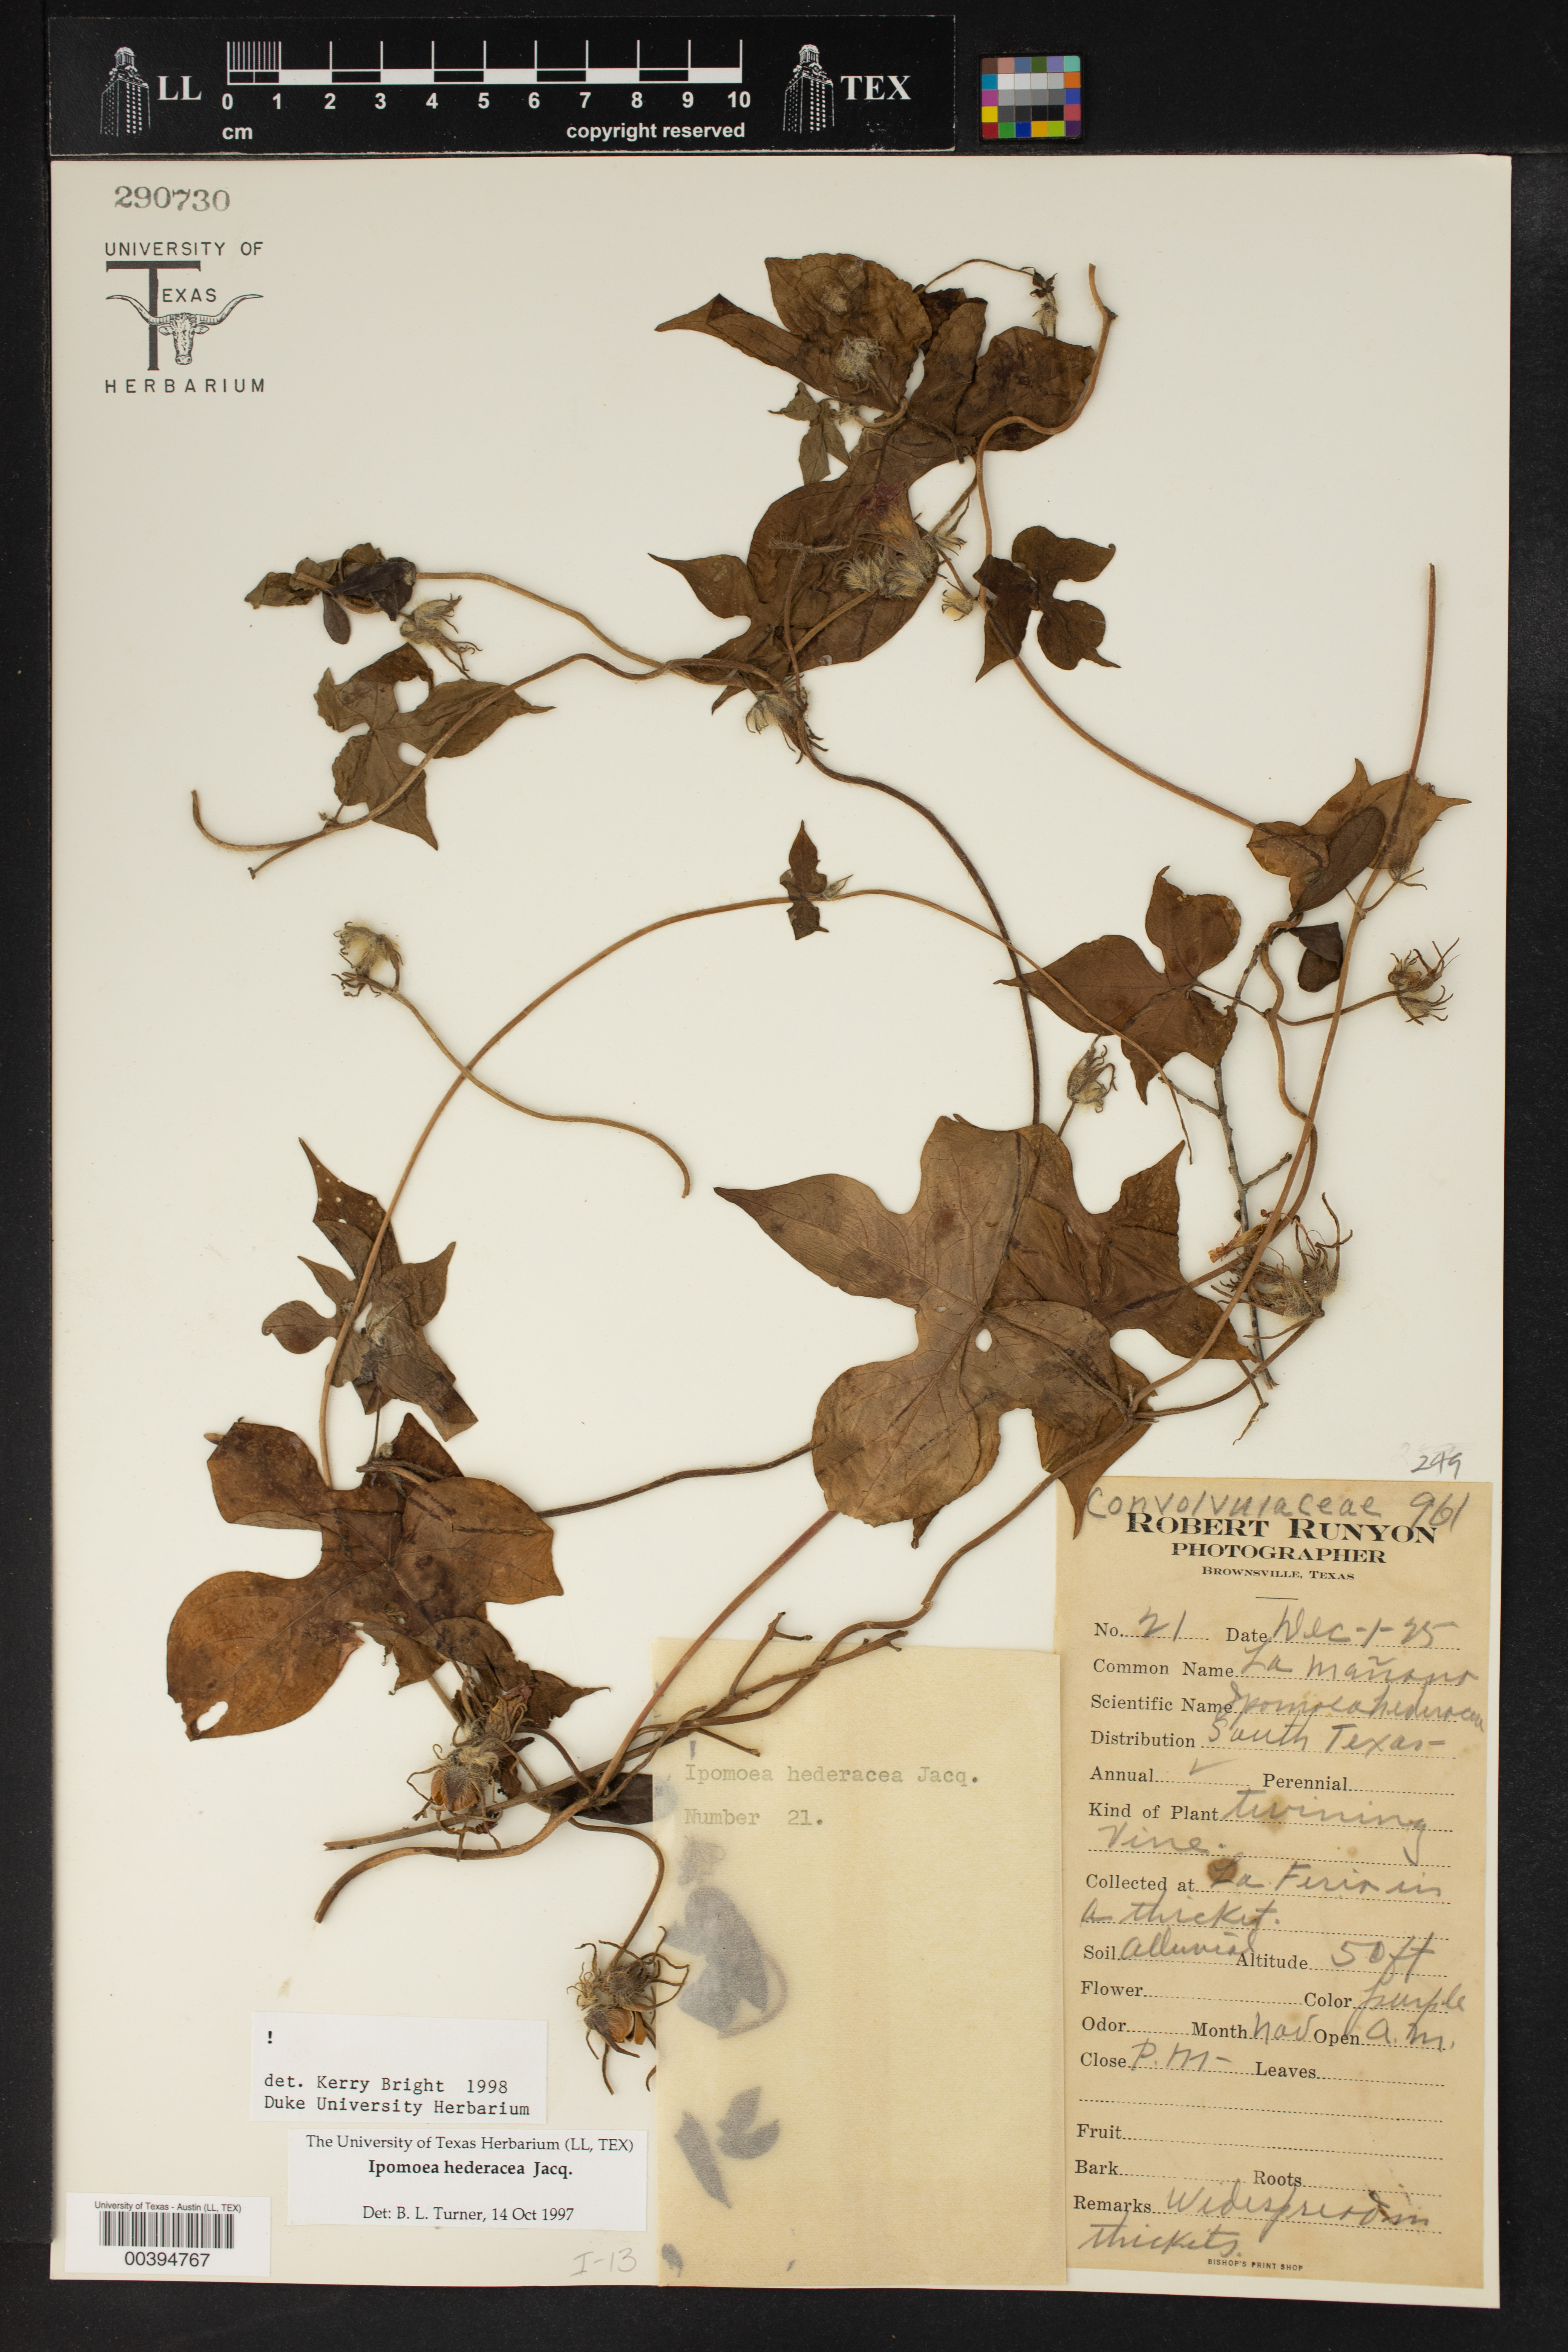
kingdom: Plantae
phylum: Tracheophyta
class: Magnoliopsida
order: Solanales
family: Convolvulaceae
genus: Ipomoea
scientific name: Ipomoea hederacea
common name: Ivy-leaved morning-glory
